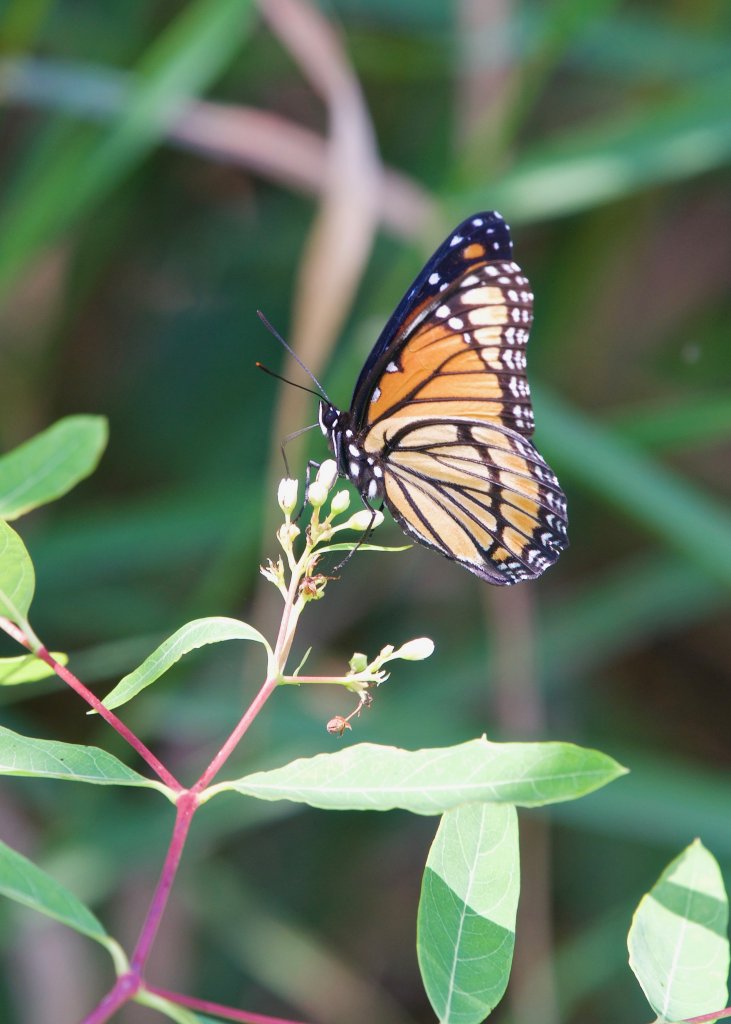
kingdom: Animalia
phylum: Arthropoda
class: Insecta
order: Lepidoptera
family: Nymphalidae
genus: Limenitis
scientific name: Limenitis archippus
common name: Viceroy
